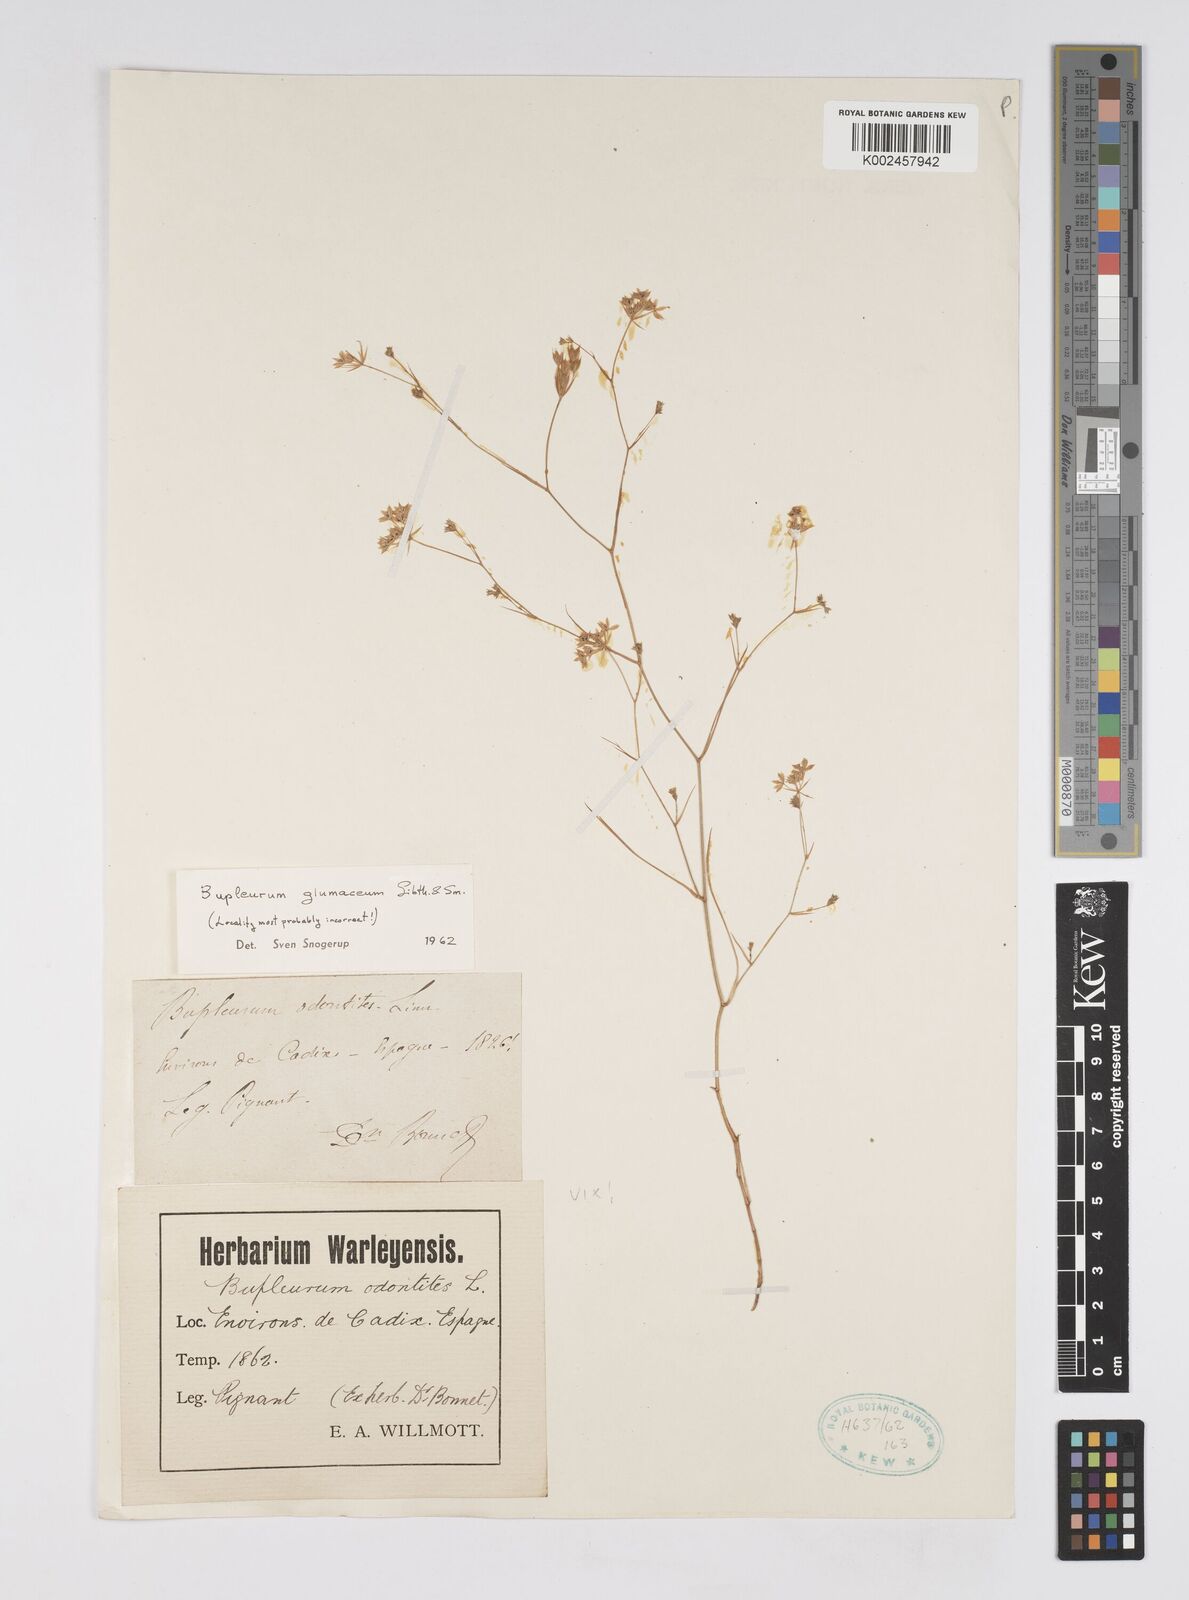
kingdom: Plantae
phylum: Tracheophyta
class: Magnoliopsida
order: Apiales
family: Apiaceae
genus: Bupleurum
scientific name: Bupleurum glumaceum
